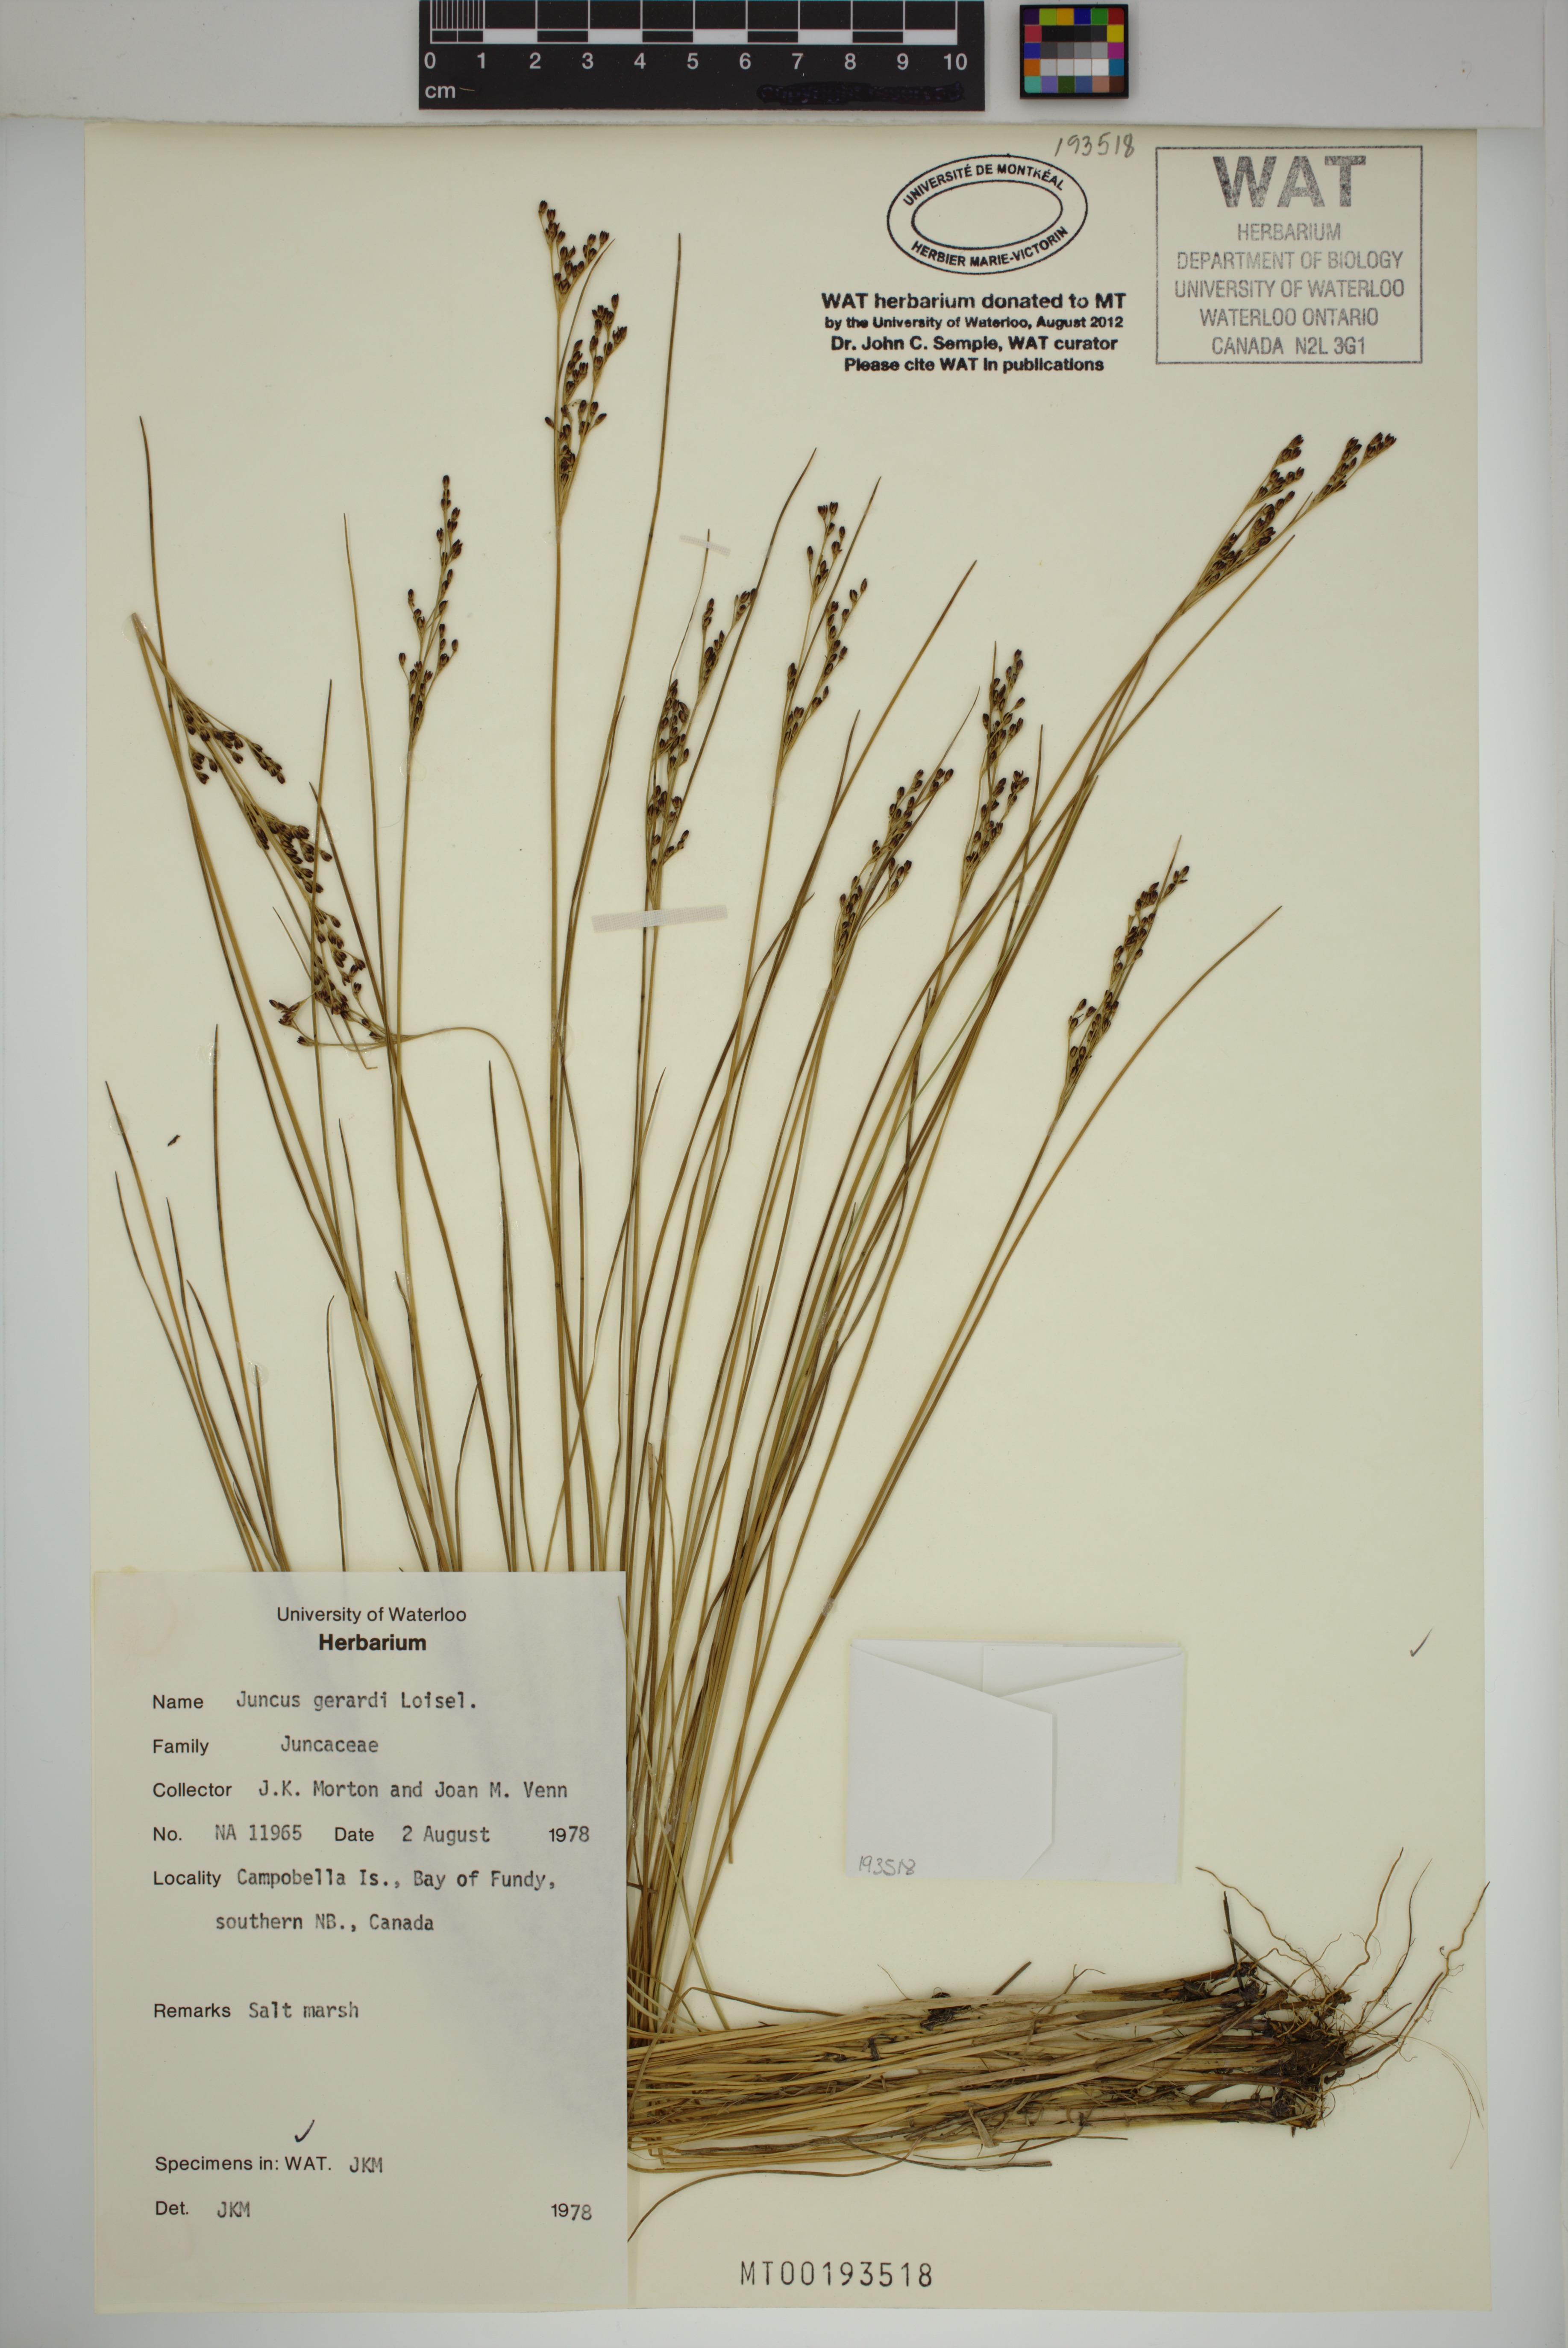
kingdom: Plantae
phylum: Tracheophyta
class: Liliopsida
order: Poales
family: Juncaceae
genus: Juncus
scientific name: Juncus gerardi
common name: Saltmarsh rush
